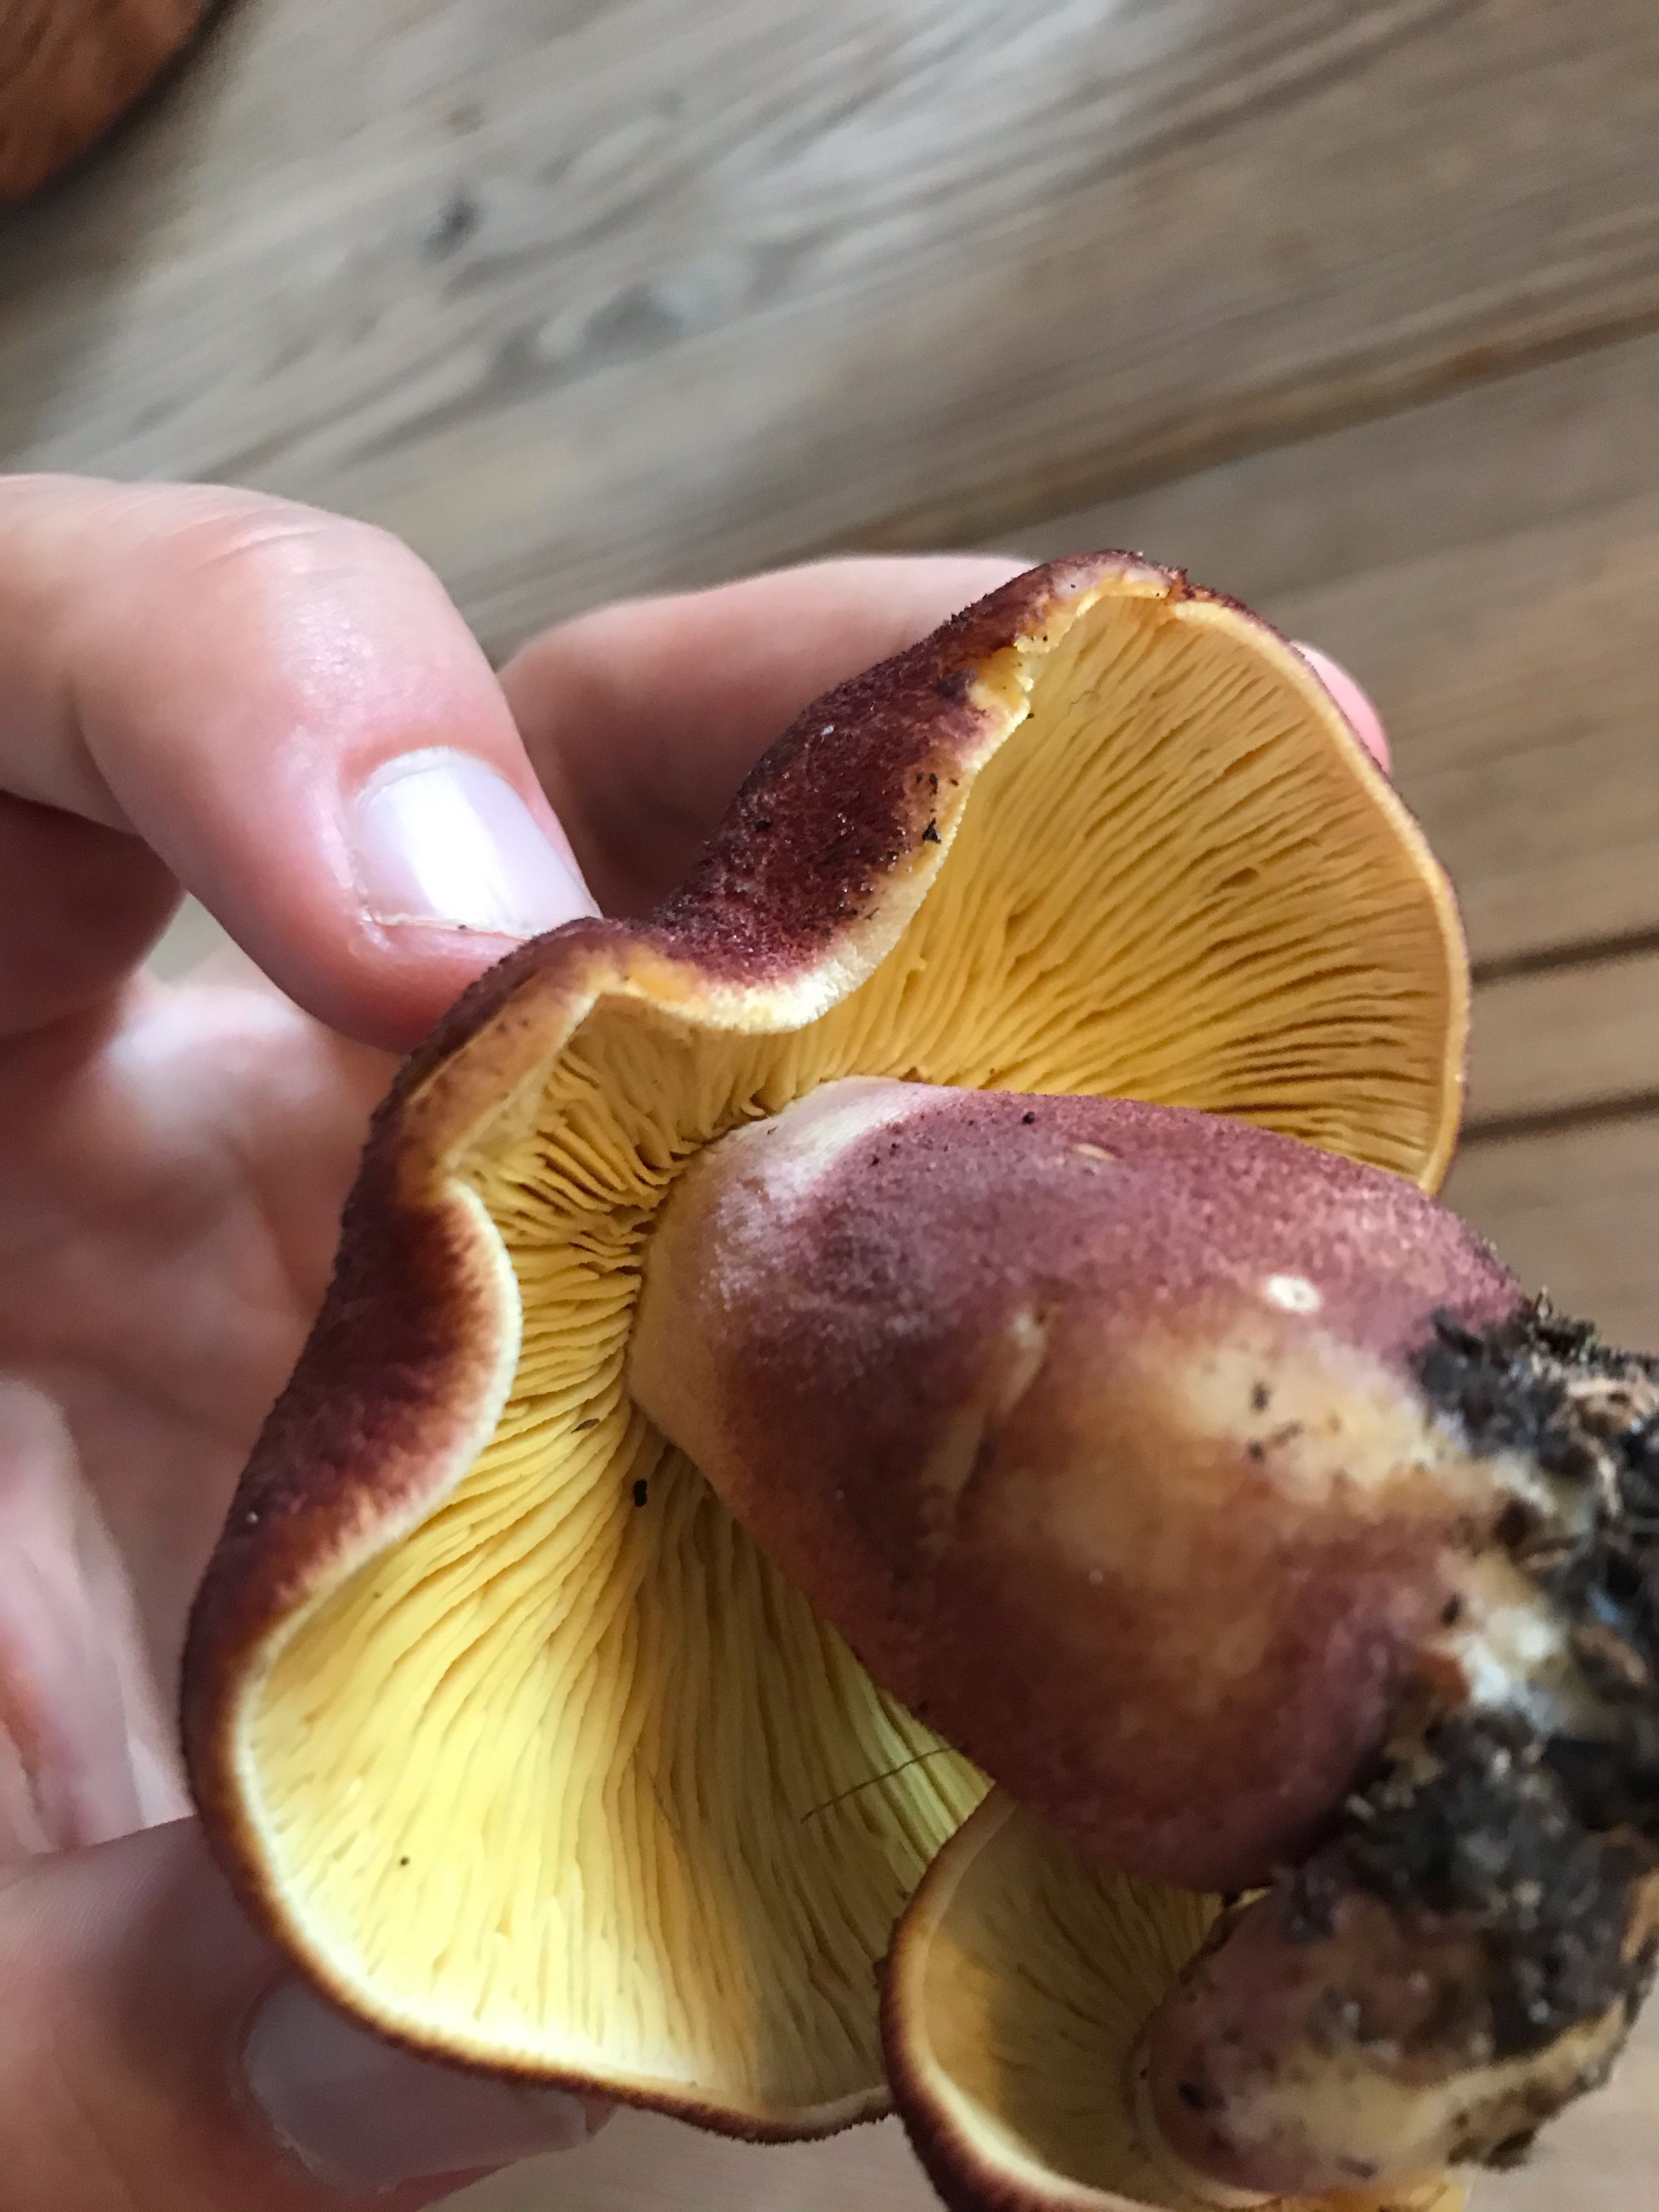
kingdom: Fungi
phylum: Basidiomycota
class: Agaricomycetes
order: Agaricales
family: Tricholomataceae
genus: Tricholomopsis
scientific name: Tricholomopsis rutilans
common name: purpur-væbnerhat
